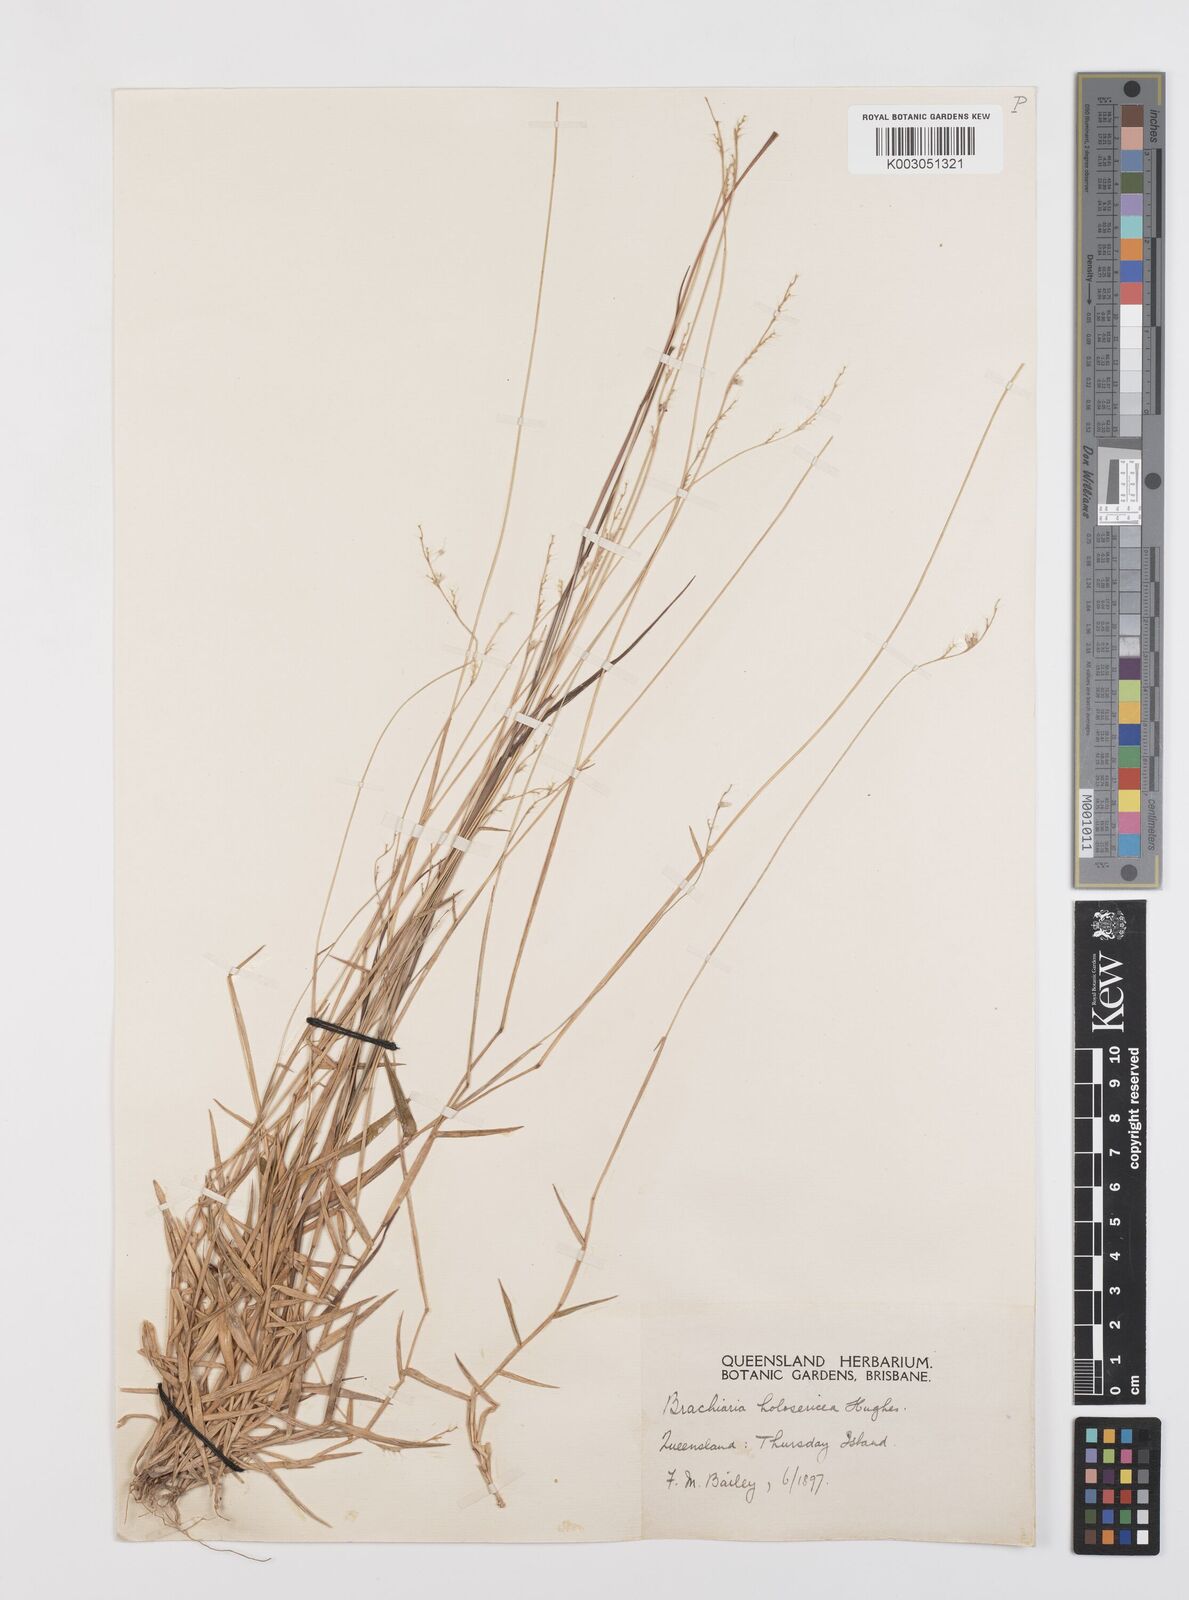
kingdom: Plantae
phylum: Tracheophyta
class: Liliopsida
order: Poales
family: Poaceae
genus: Urochloa
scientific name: Urochloa holosericea
